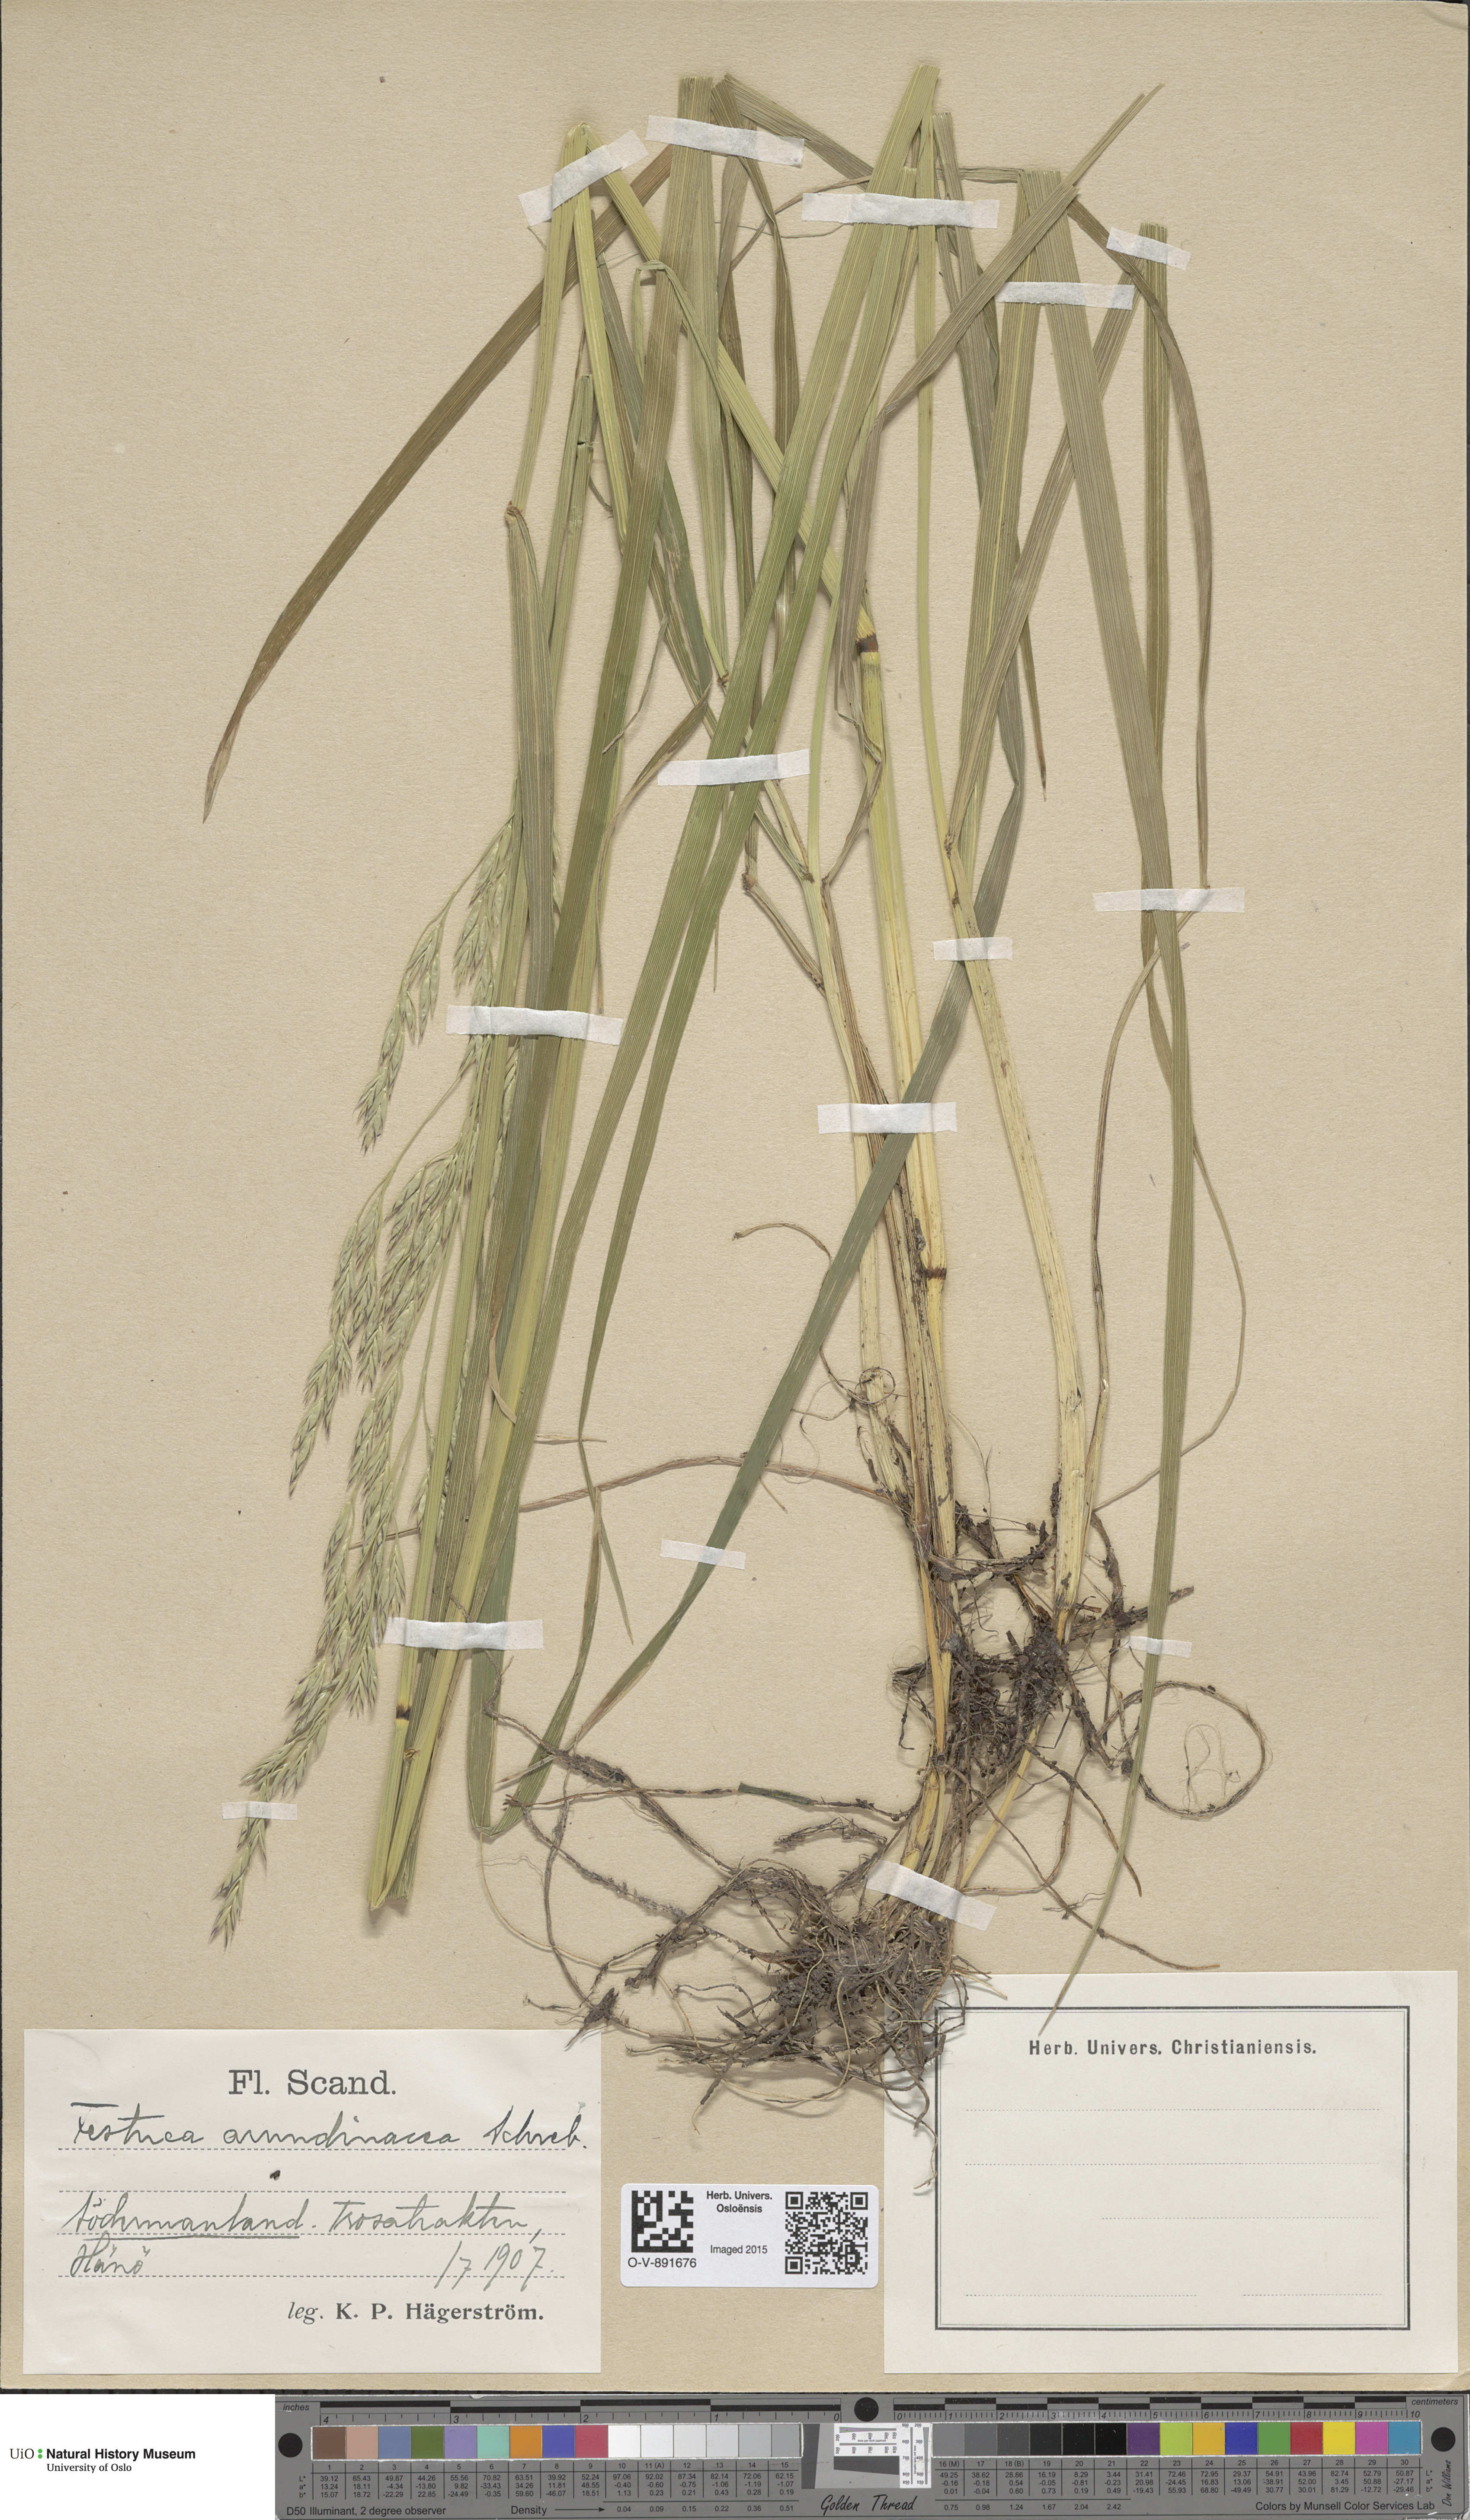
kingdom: Plantae
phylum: Tracheophyta
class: Liliopsida
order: Poales
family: Poaceae
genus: Lolium
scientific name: Lolium arundinaceum
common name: Reed fescue
